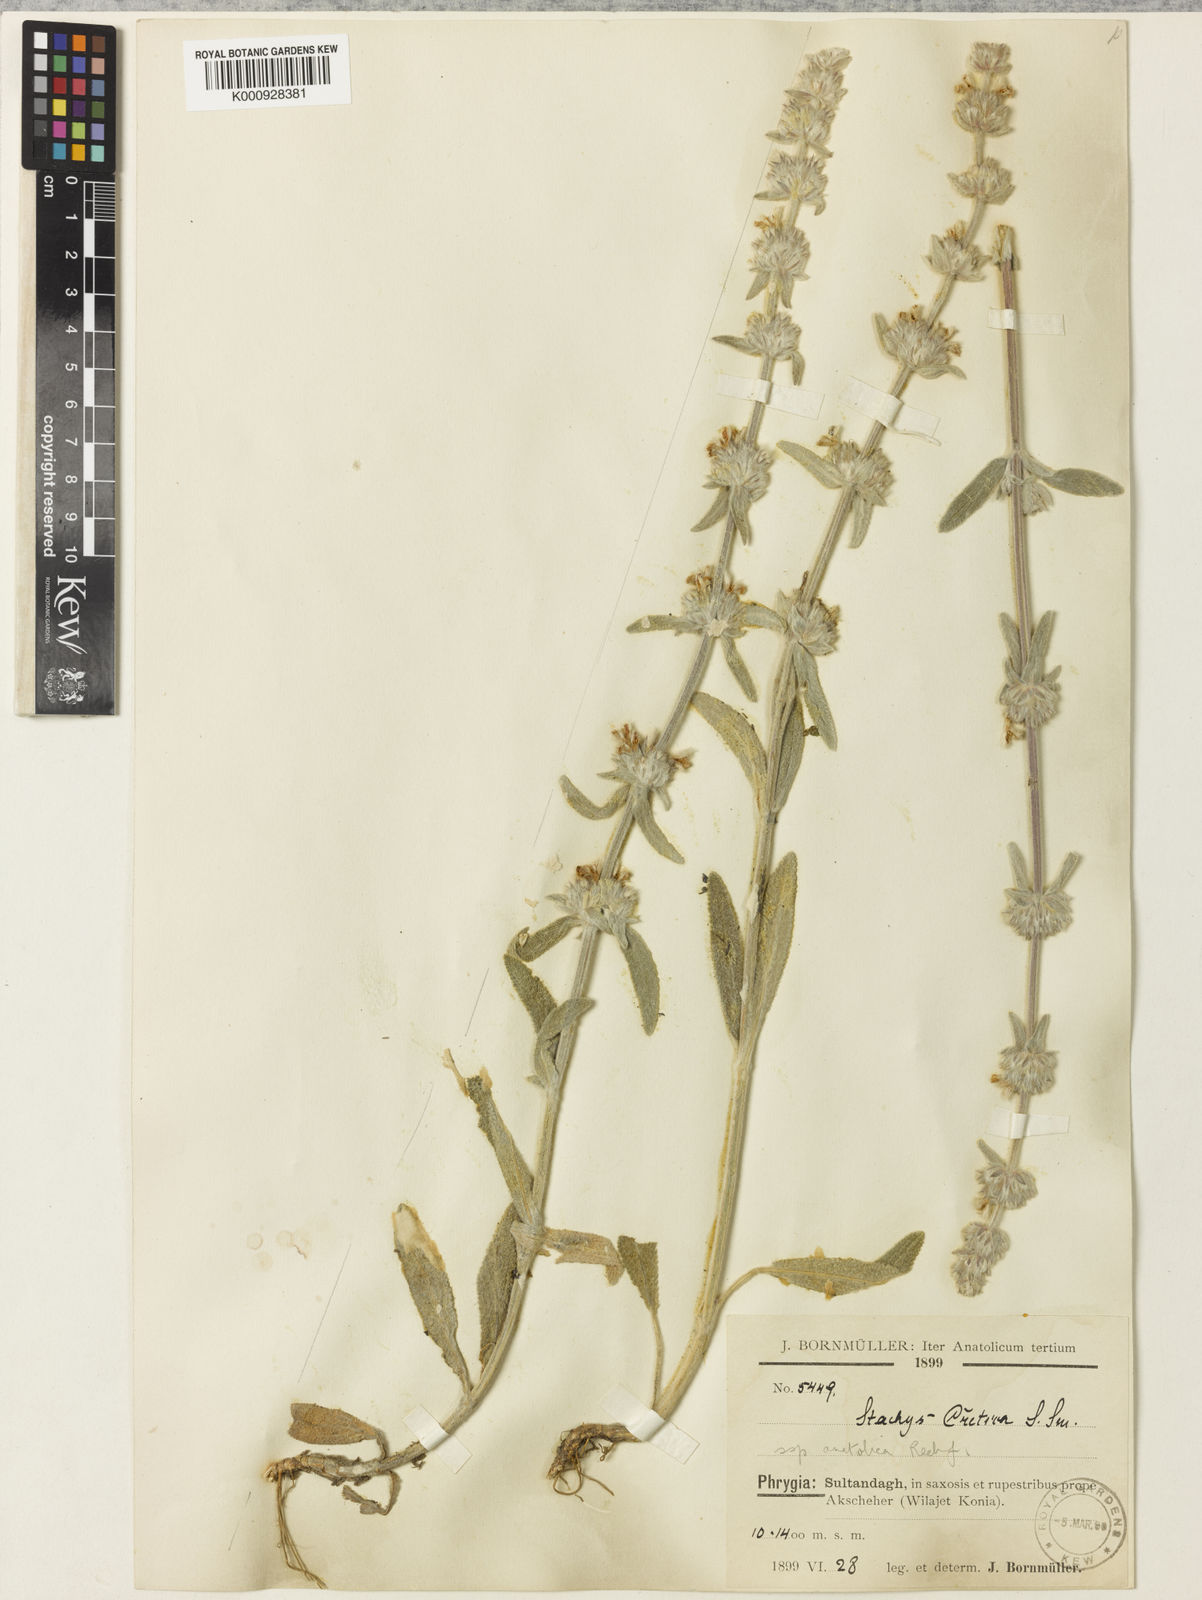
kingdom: Plantae
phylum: Tracheophyta
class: Magnoliopsida
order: Lamiales
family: Lamiaceae
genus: Stachys
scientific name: Stachys cretica
